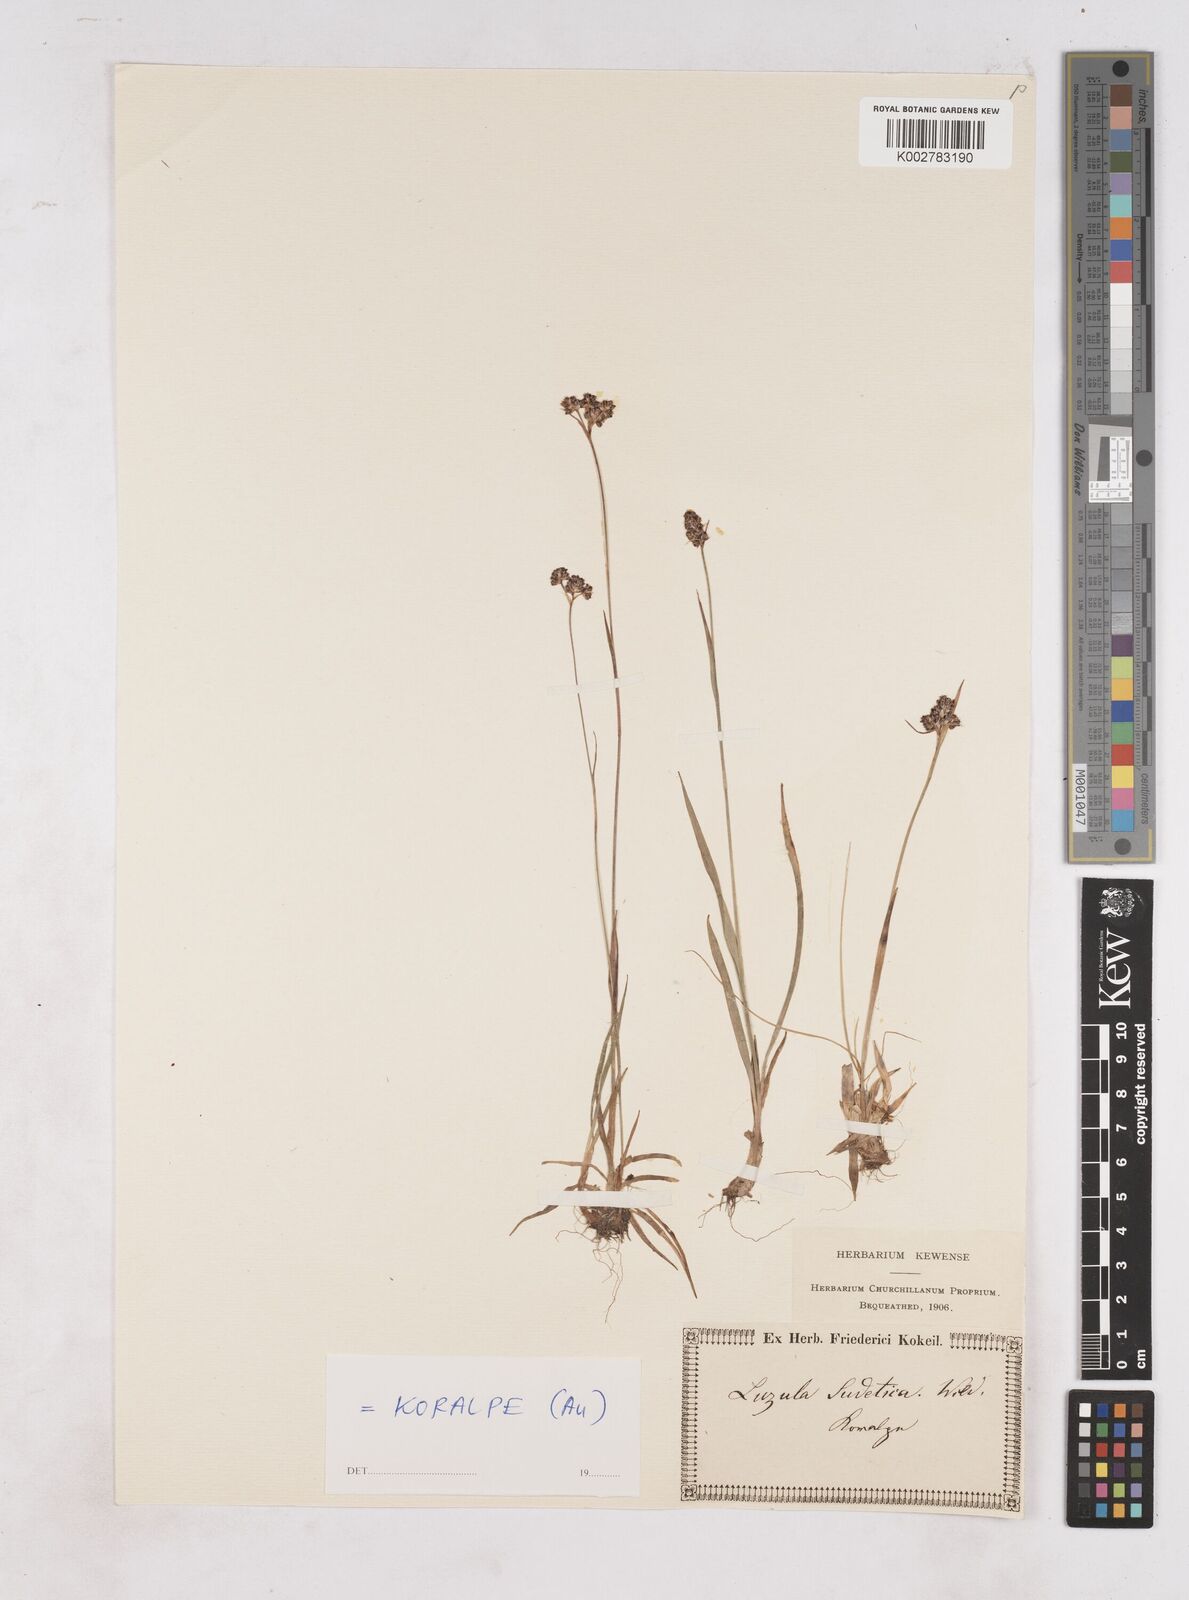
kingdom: Plantae
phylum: Tracheophyta
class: Liliopsida
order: Poales
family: Juncaceae
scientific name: Juncaceae
